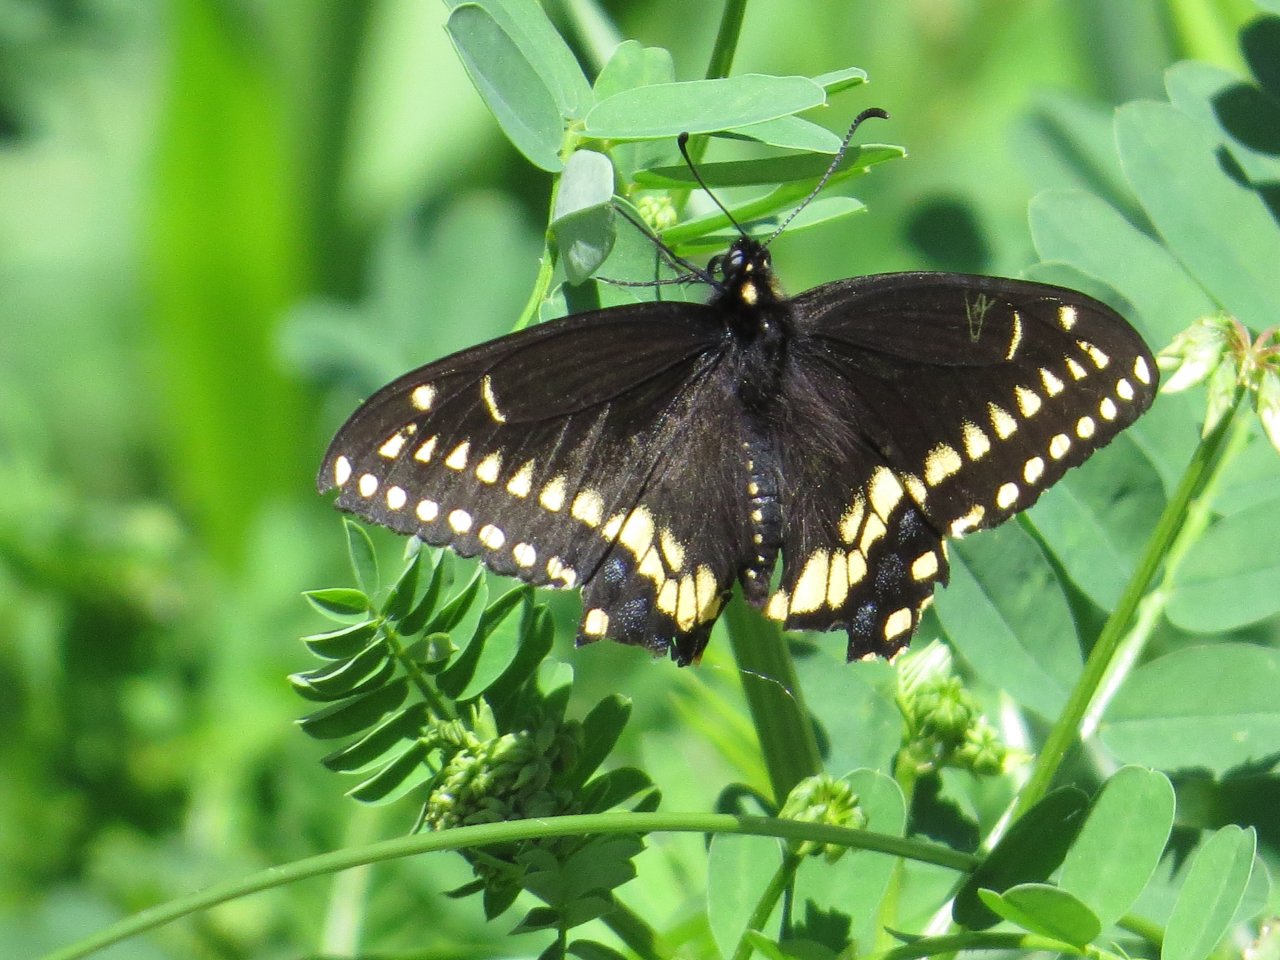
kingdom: Animalia
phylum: Arthropoda
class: Insecta
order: Lepidoptera
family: Papilionidae
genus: Papilio
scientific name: Papilio polyxenes
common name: Black Swallowtail
